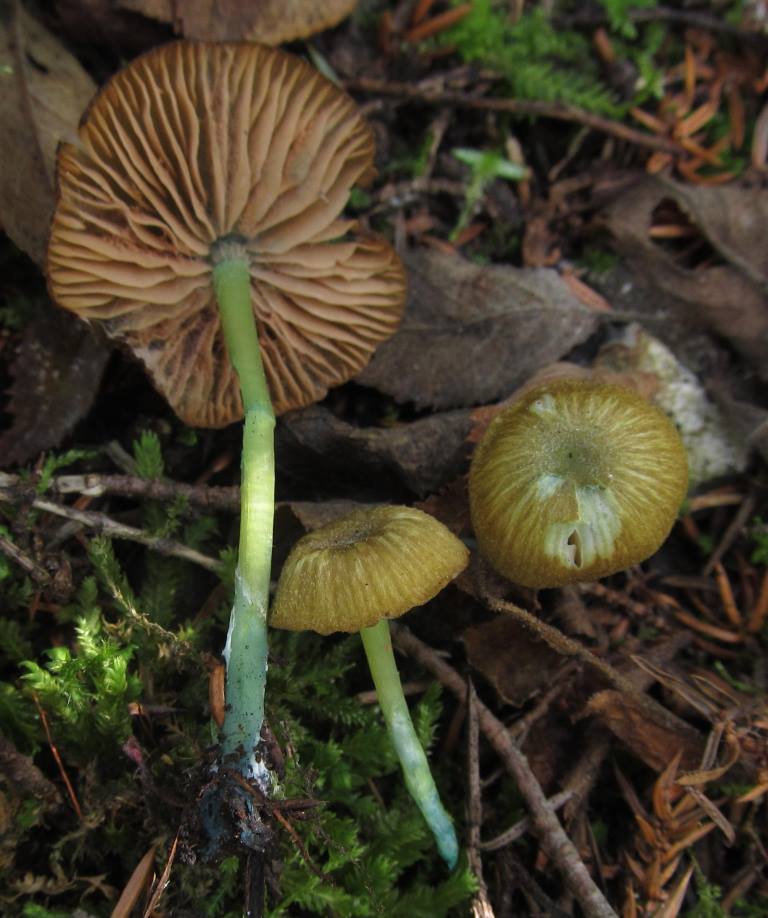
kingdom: Fungi
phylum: Basidiomycota
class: Agaricomycetes
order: Agaricales
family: Entolomataceae
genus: Entoloma
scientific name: Entoloma incanum
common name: grøngul rødblad
